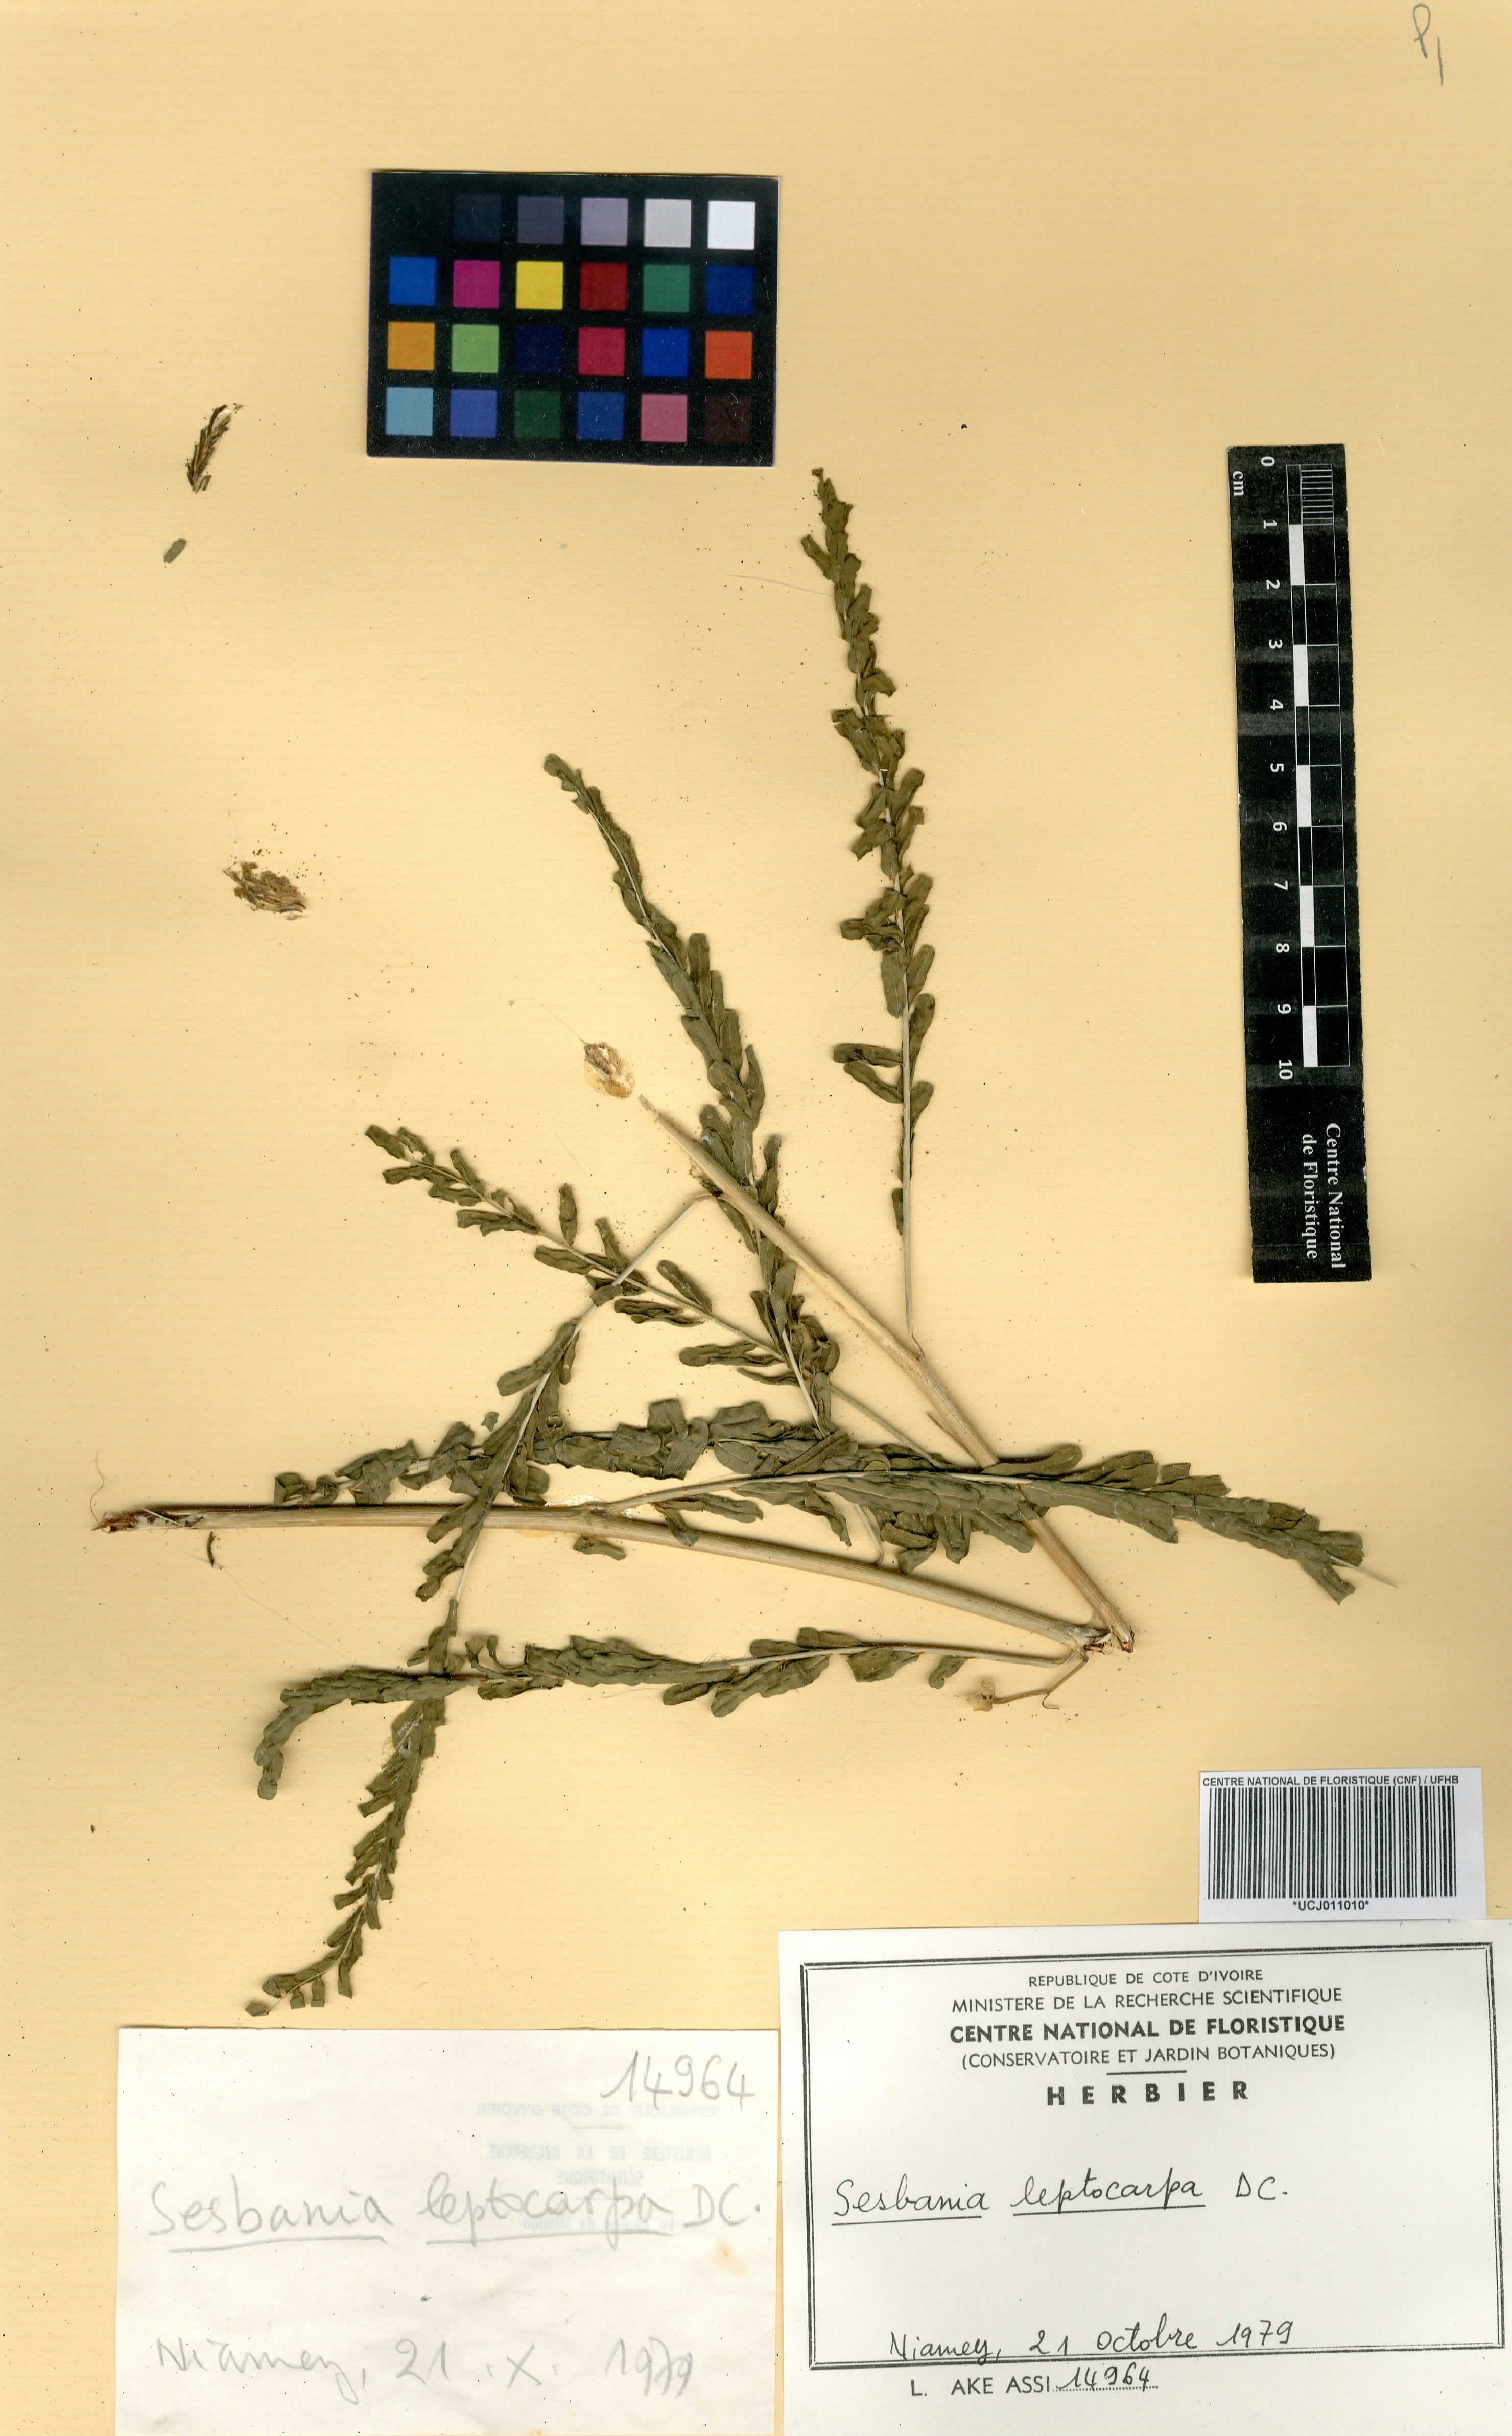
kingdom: Plantae
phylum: Tracheophyta
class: Magnoliopsida
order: Fabales
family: Fabaceae
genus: Sesbania
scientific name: Sesbania leptocarpa
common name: Riverhemp
